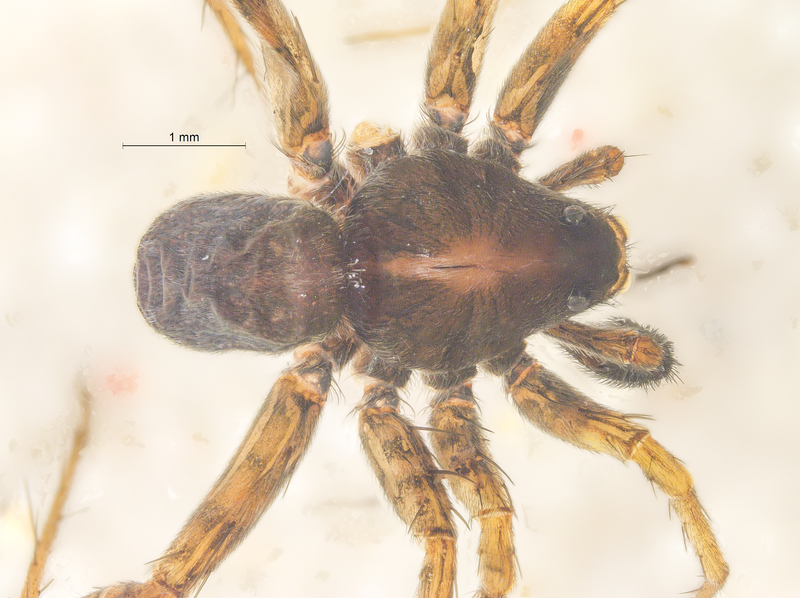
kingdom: Animalia
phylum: Arthropoda
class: Arachnida
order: Araneae
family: Lycosidae
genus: Pardosa
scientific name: Pardosa hortensis
